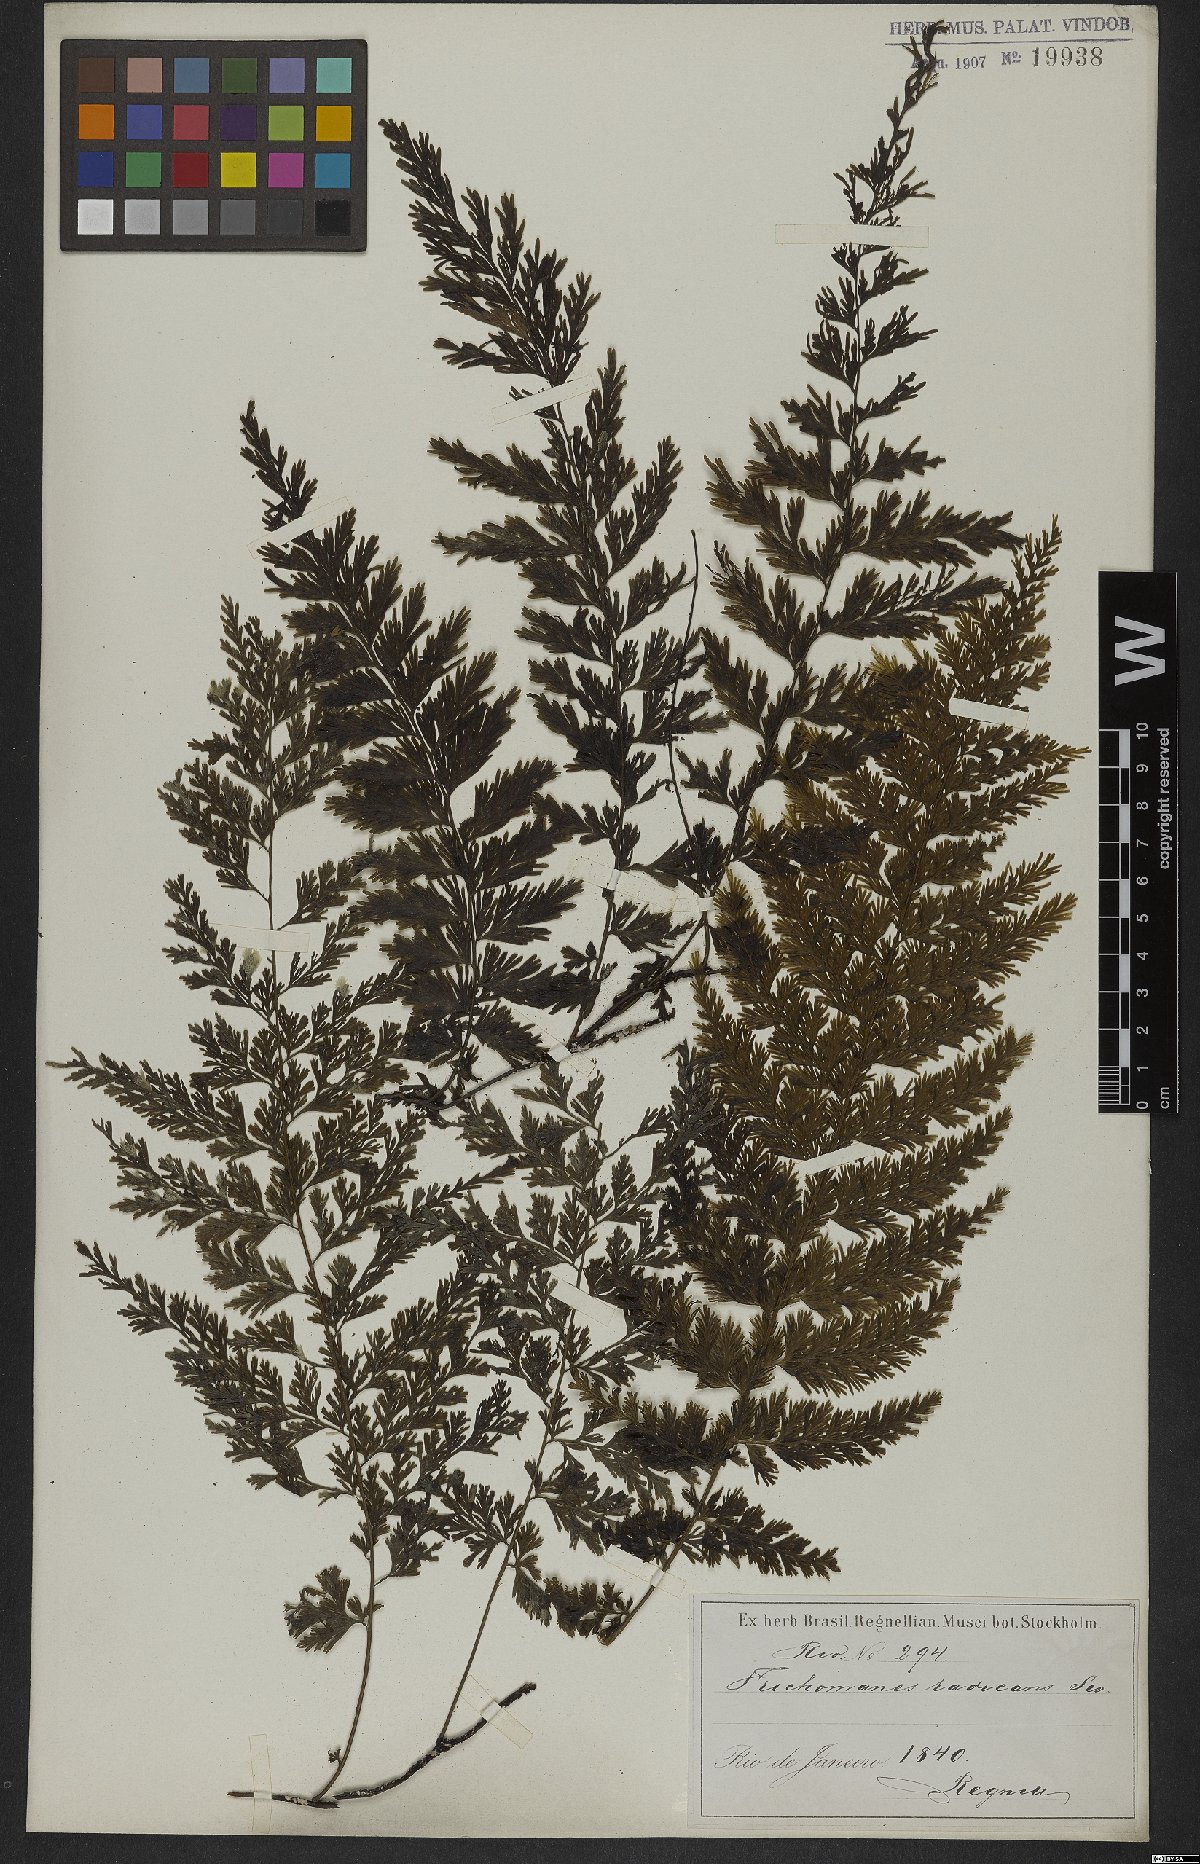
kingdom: Plantae
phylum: Tracheophyta
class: Polypodiopsida
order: Hymenophyllales
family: Hymenophyllaceae
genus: Vandenboschia
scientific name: Vandenboschia radicans
